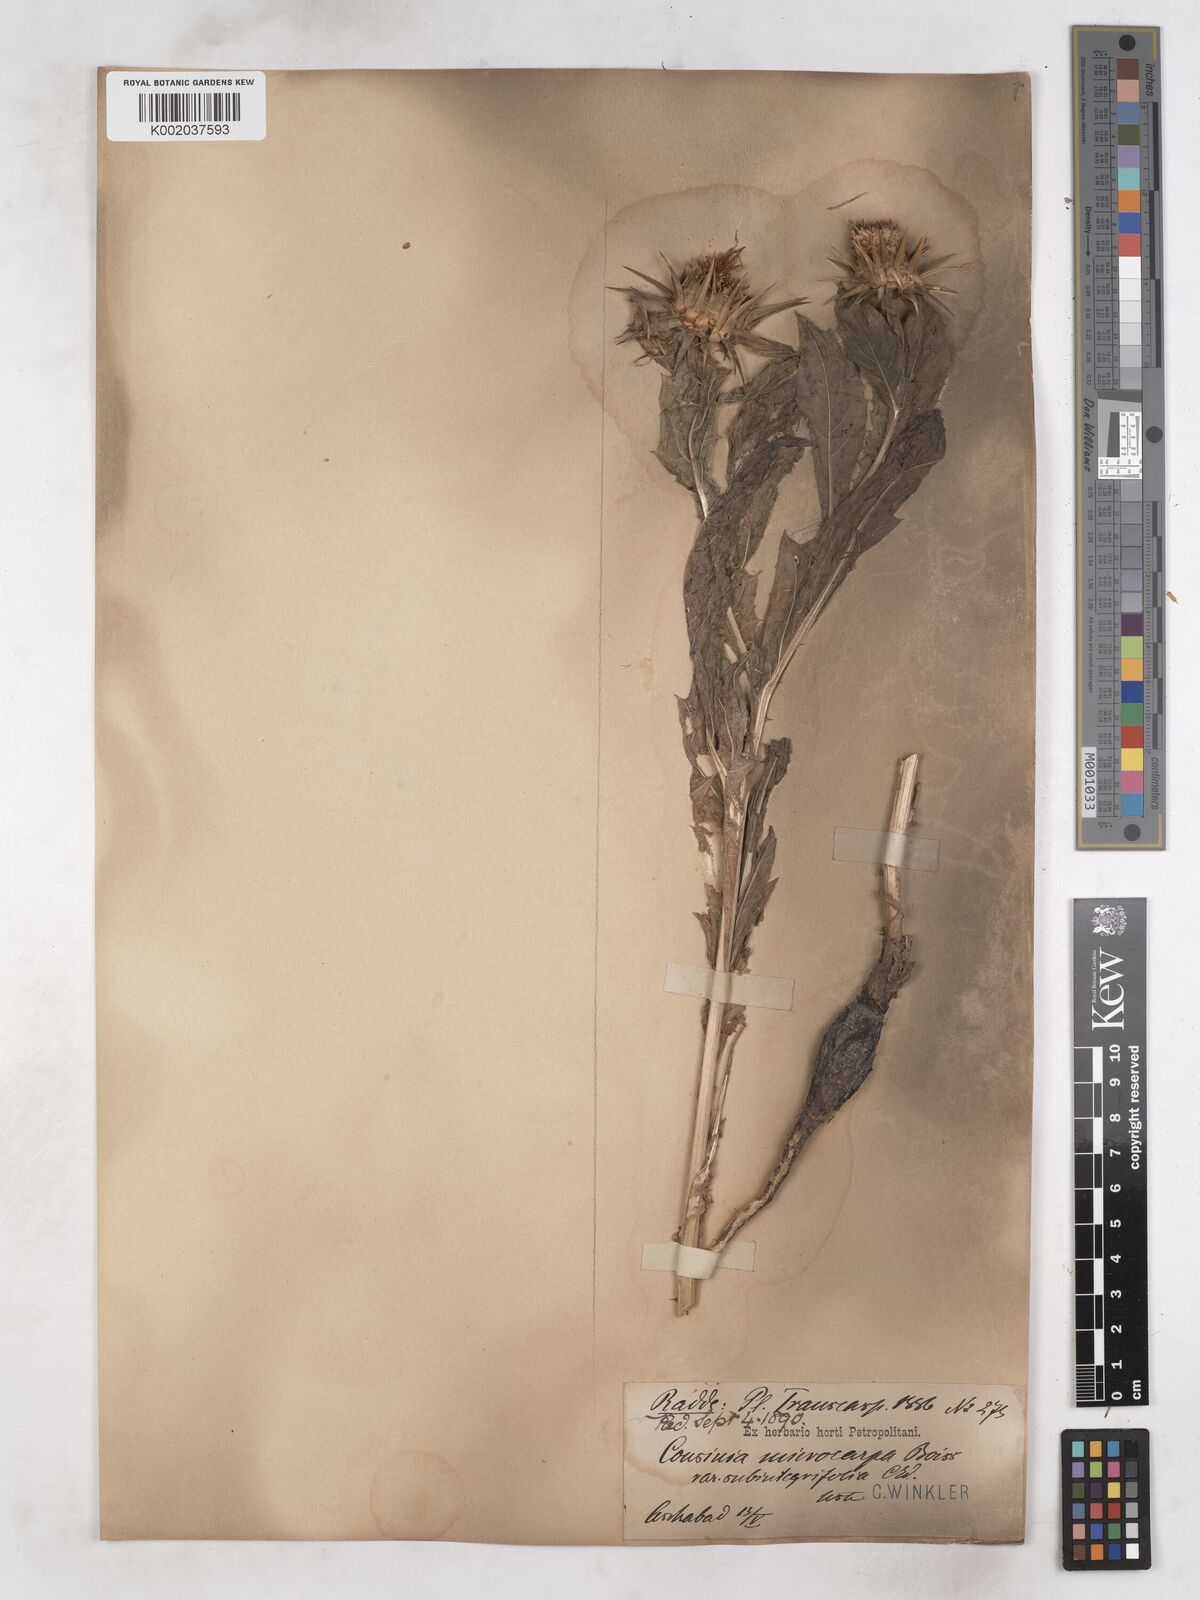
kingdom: Plantae
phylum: Tracheophyta
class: Magnoliopsida
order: Asterales
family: Asteraceae
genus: Cousinia
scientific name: Cousinia microcarpa
